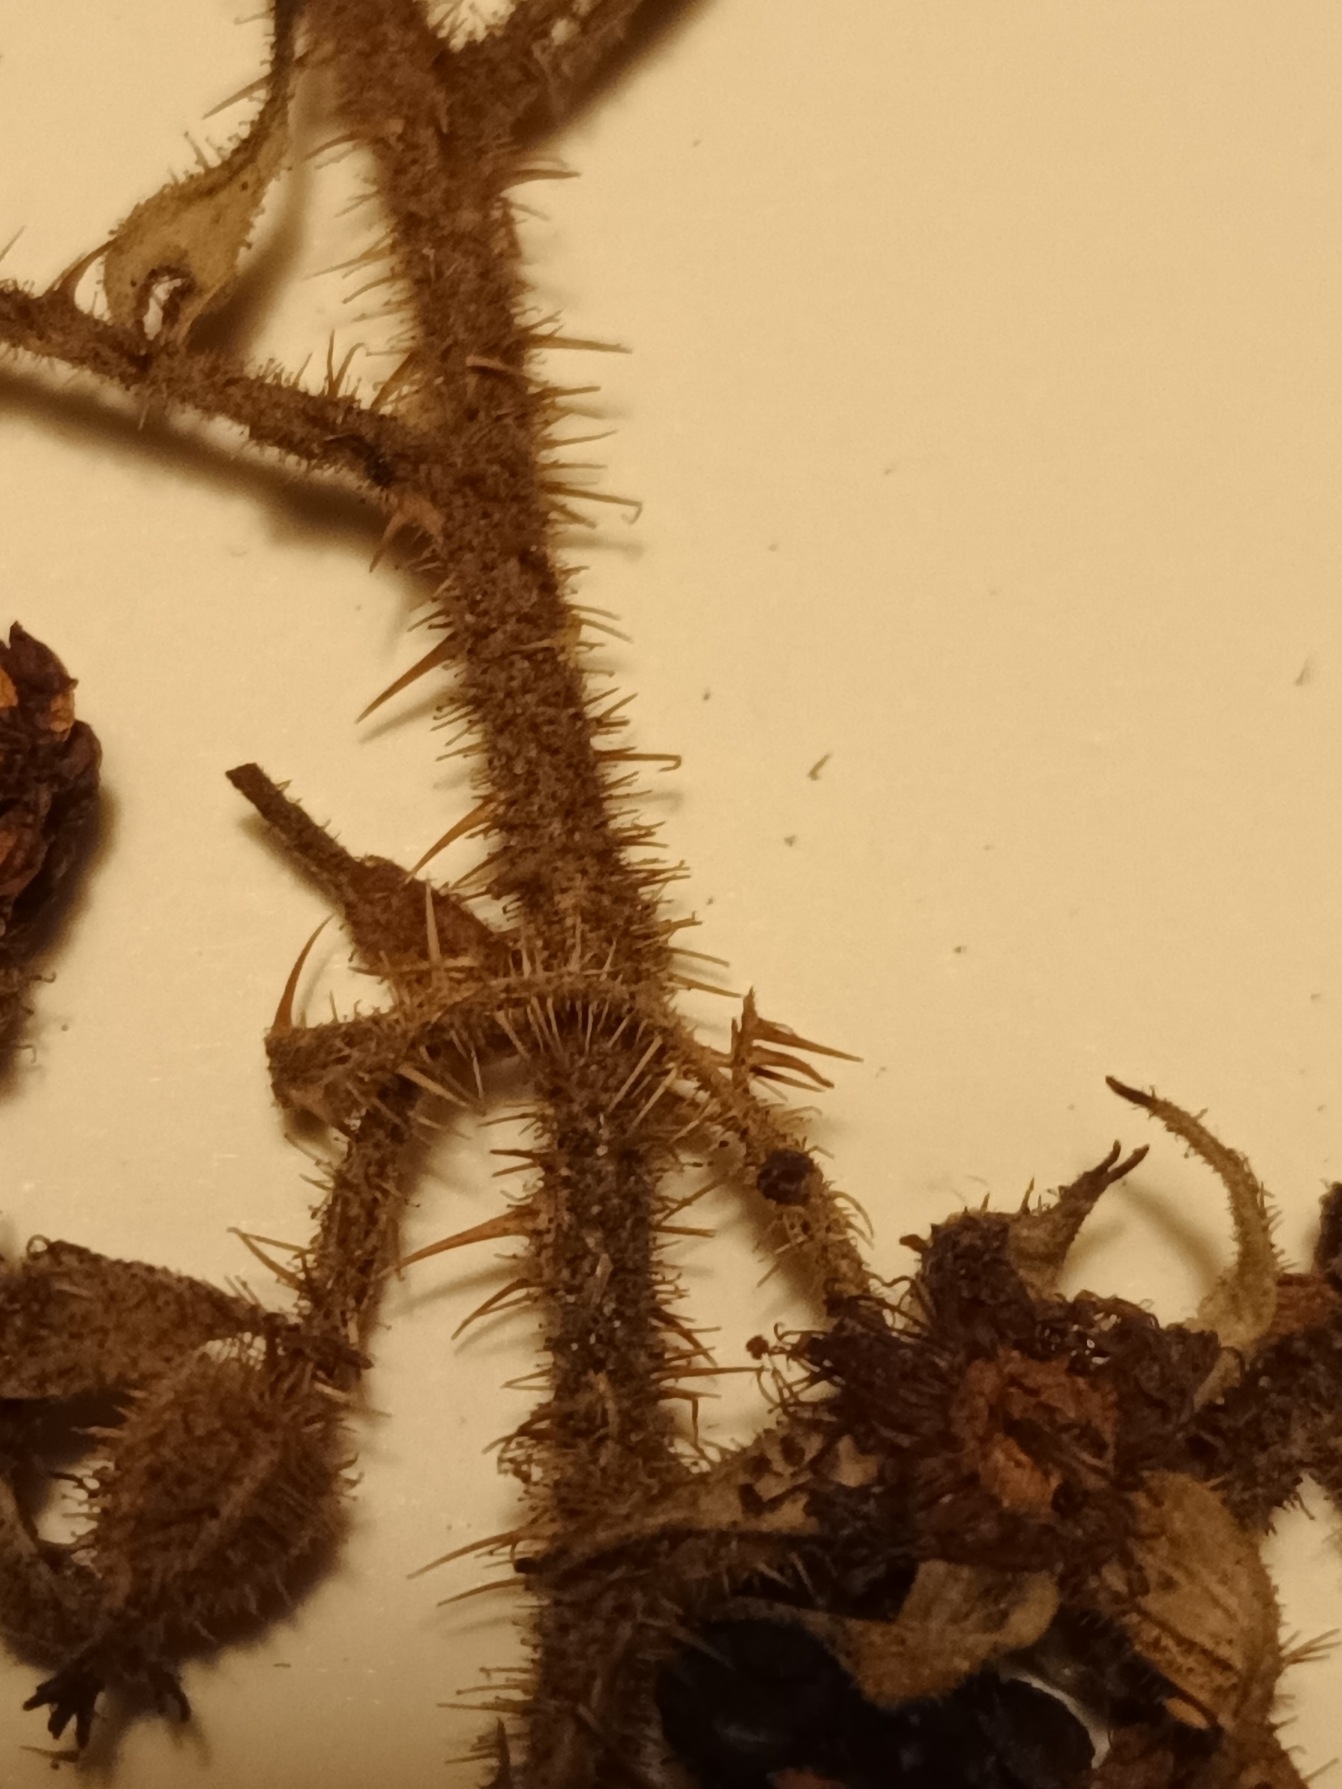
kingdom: Plantae
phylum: Tracheophyta
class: Magnoliopsida
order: Rosales
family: Rosaceae
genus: Rubus
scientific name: Rubus christianseniorum
